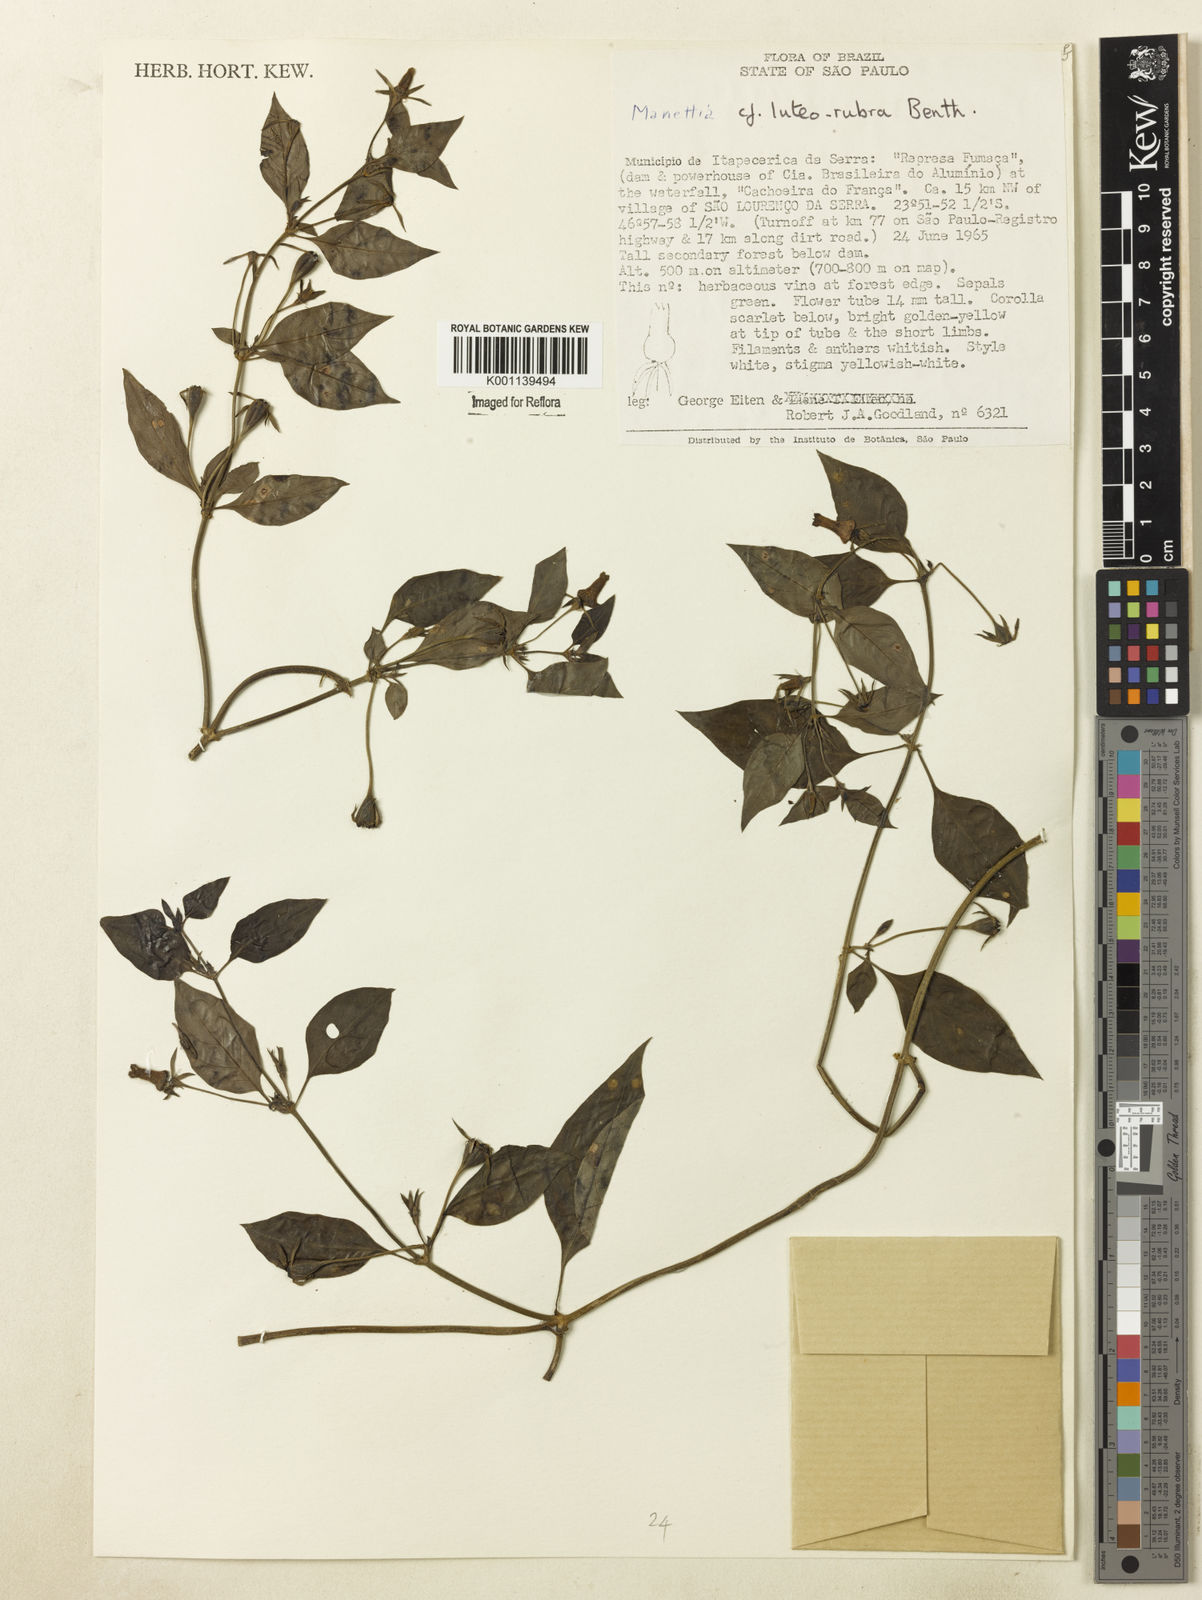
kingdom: Plantae
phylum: Tracheophyta
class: Magnoliopsida
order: Gentianales
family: Rubiaceae
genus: Manettia
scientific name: Manettia luteorubra
